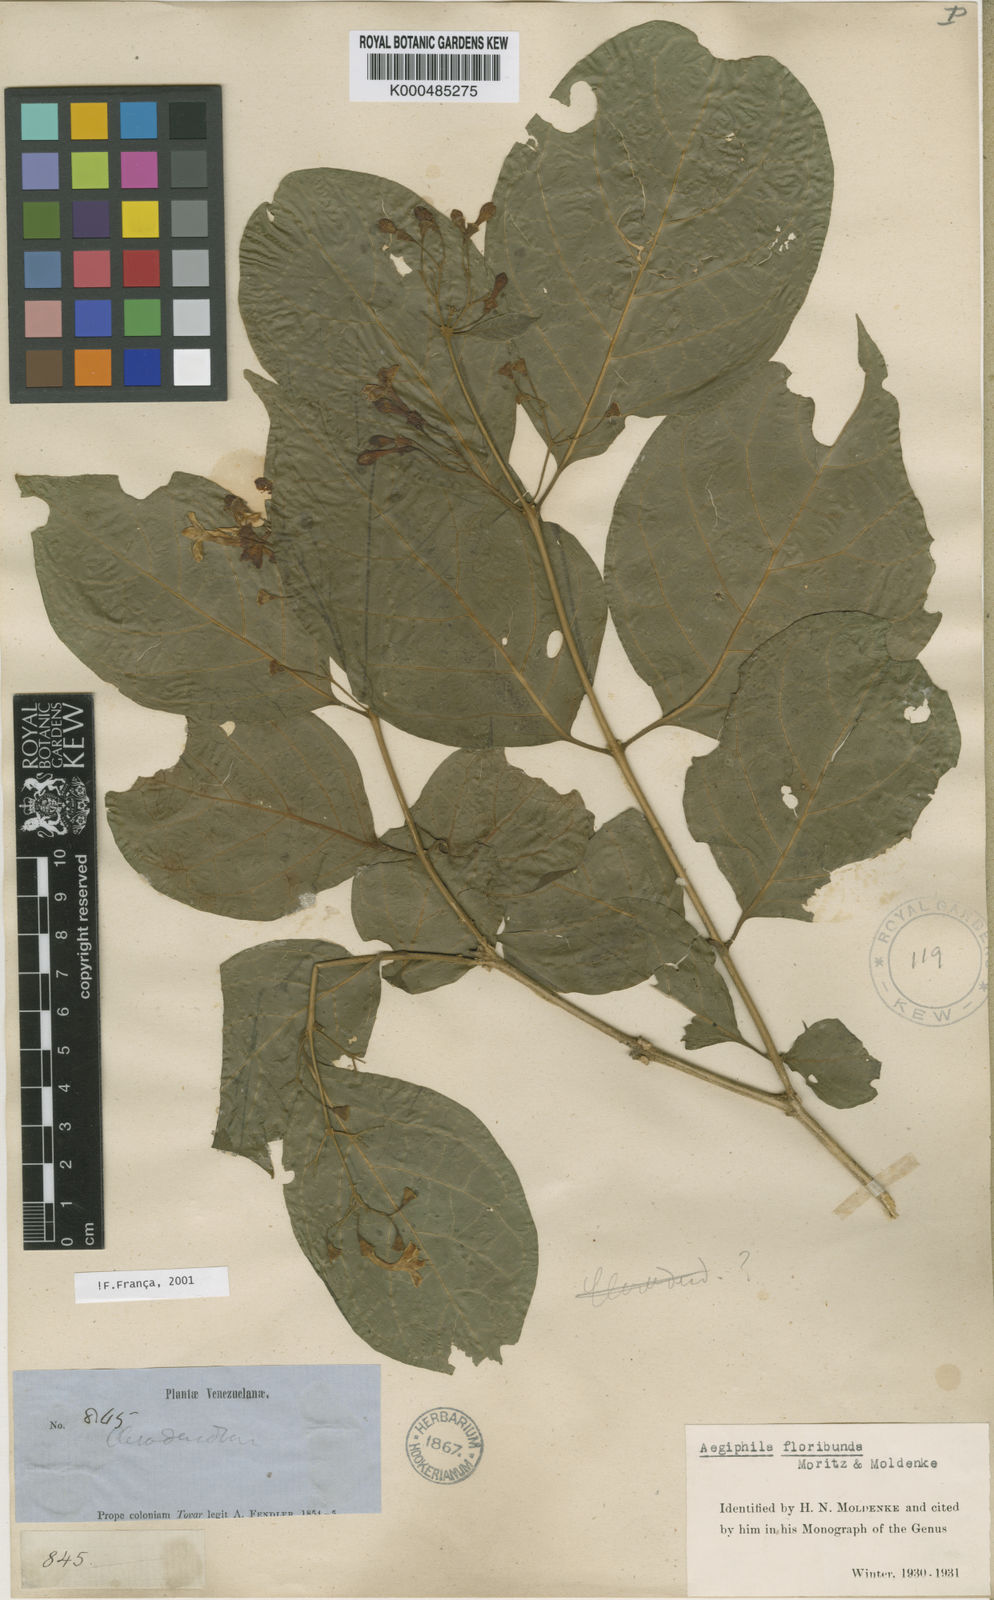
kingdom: Plantae
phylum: Tracheophyta
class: Magnoliopsida
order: Lamiales
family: Lamiaceae
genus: Aegiphila
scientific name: Aegiphila floribunda
